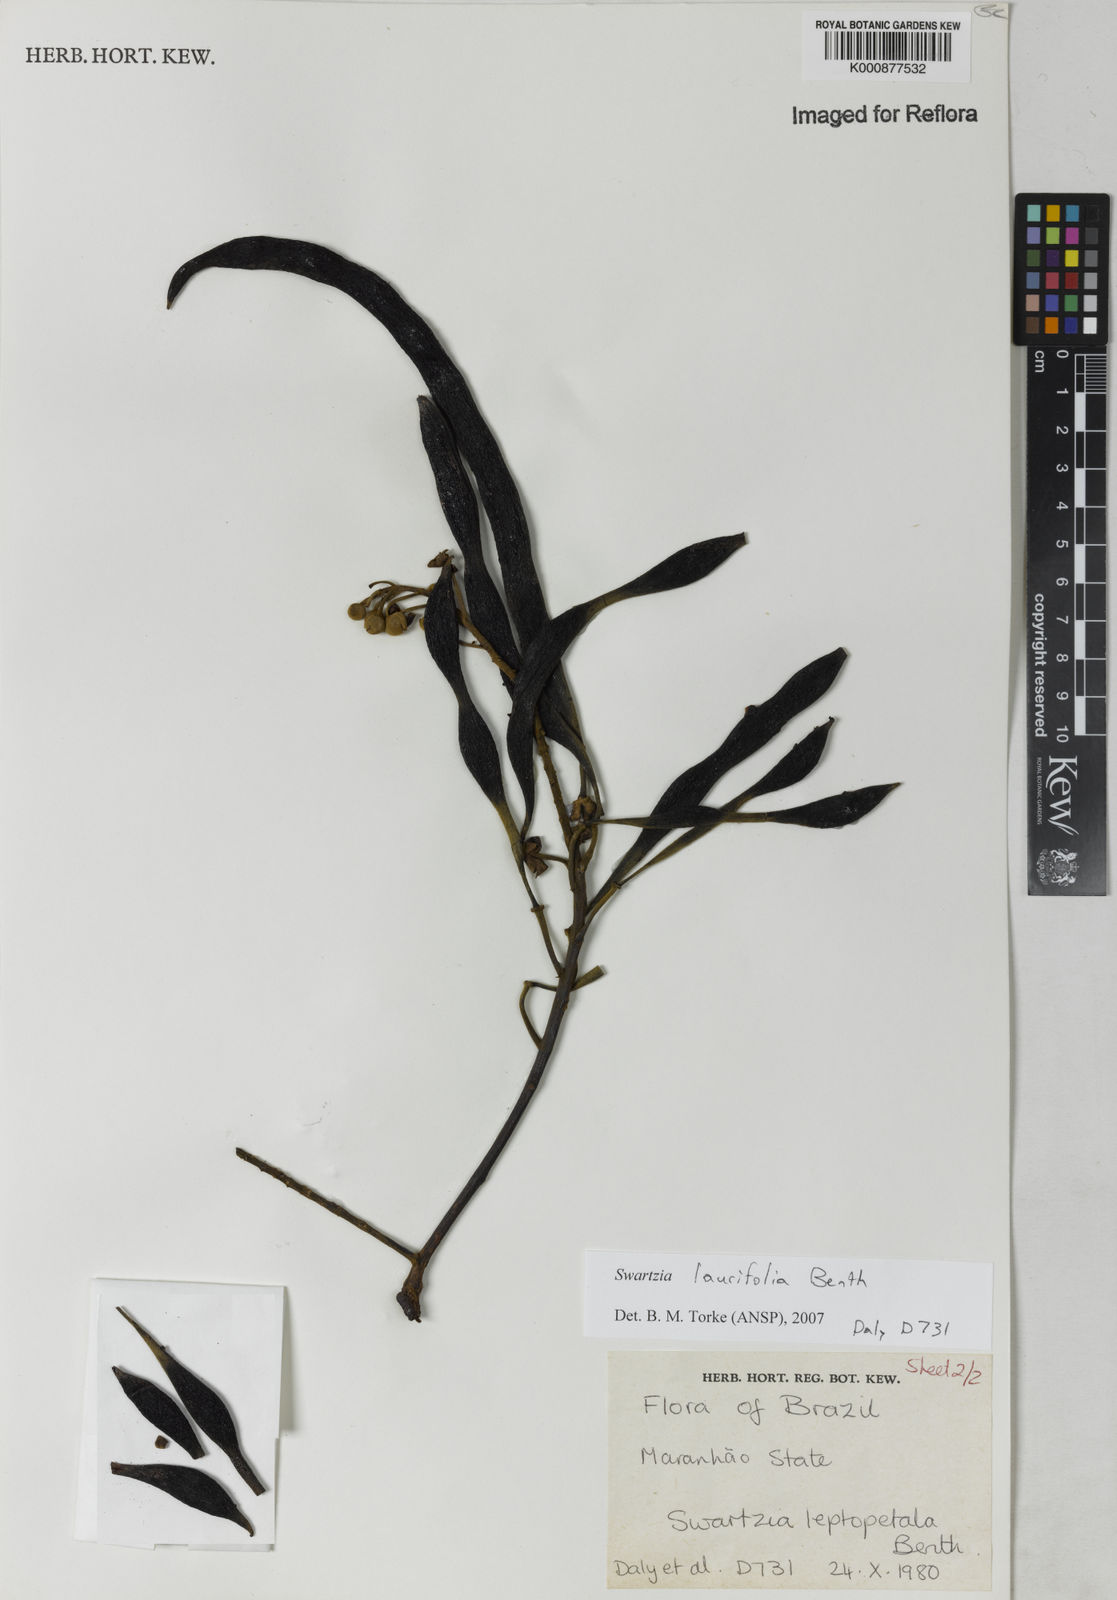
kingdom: Plantae
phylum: Tracheophyta
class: Magnoliopsida
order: Fabales
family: Fabaceae
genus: Swartzia
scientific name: Swartzia laurifolia
